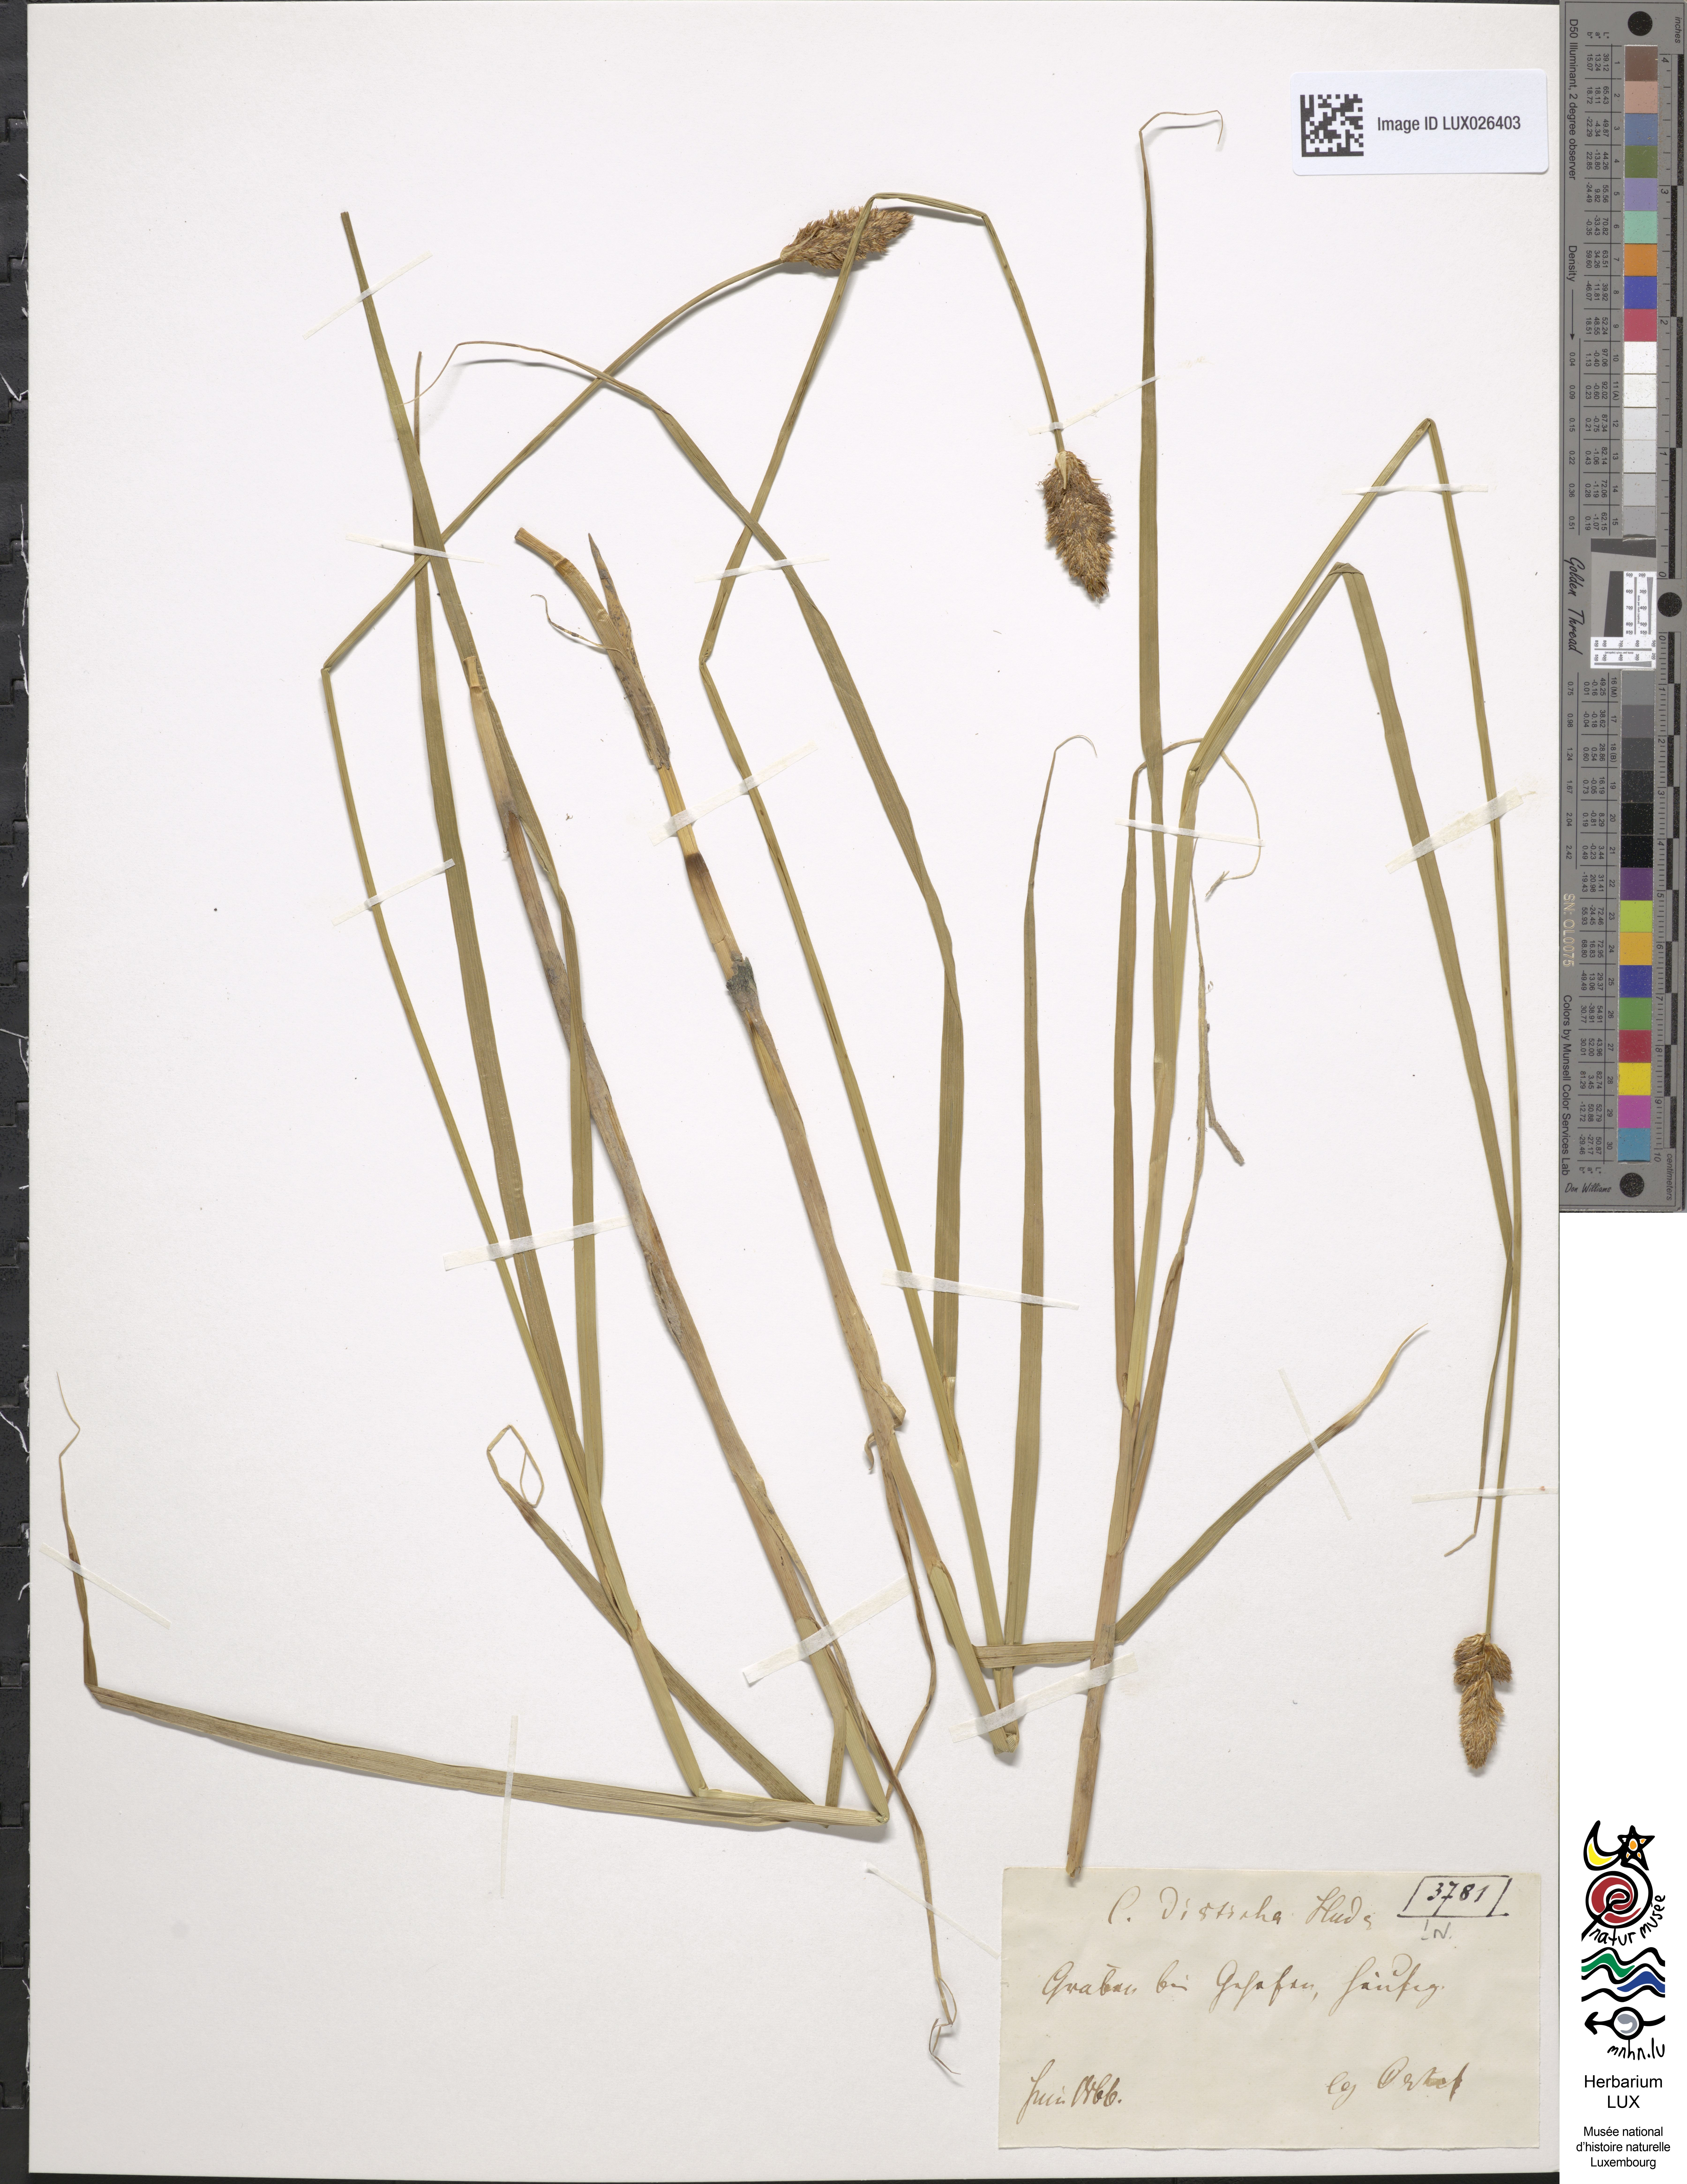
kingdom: Plantae
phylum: Tracheophyta
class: Liliopsida
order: Poales
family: Cyperaceae
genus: Carex
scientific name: Carex disticha
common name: Brown sedge
